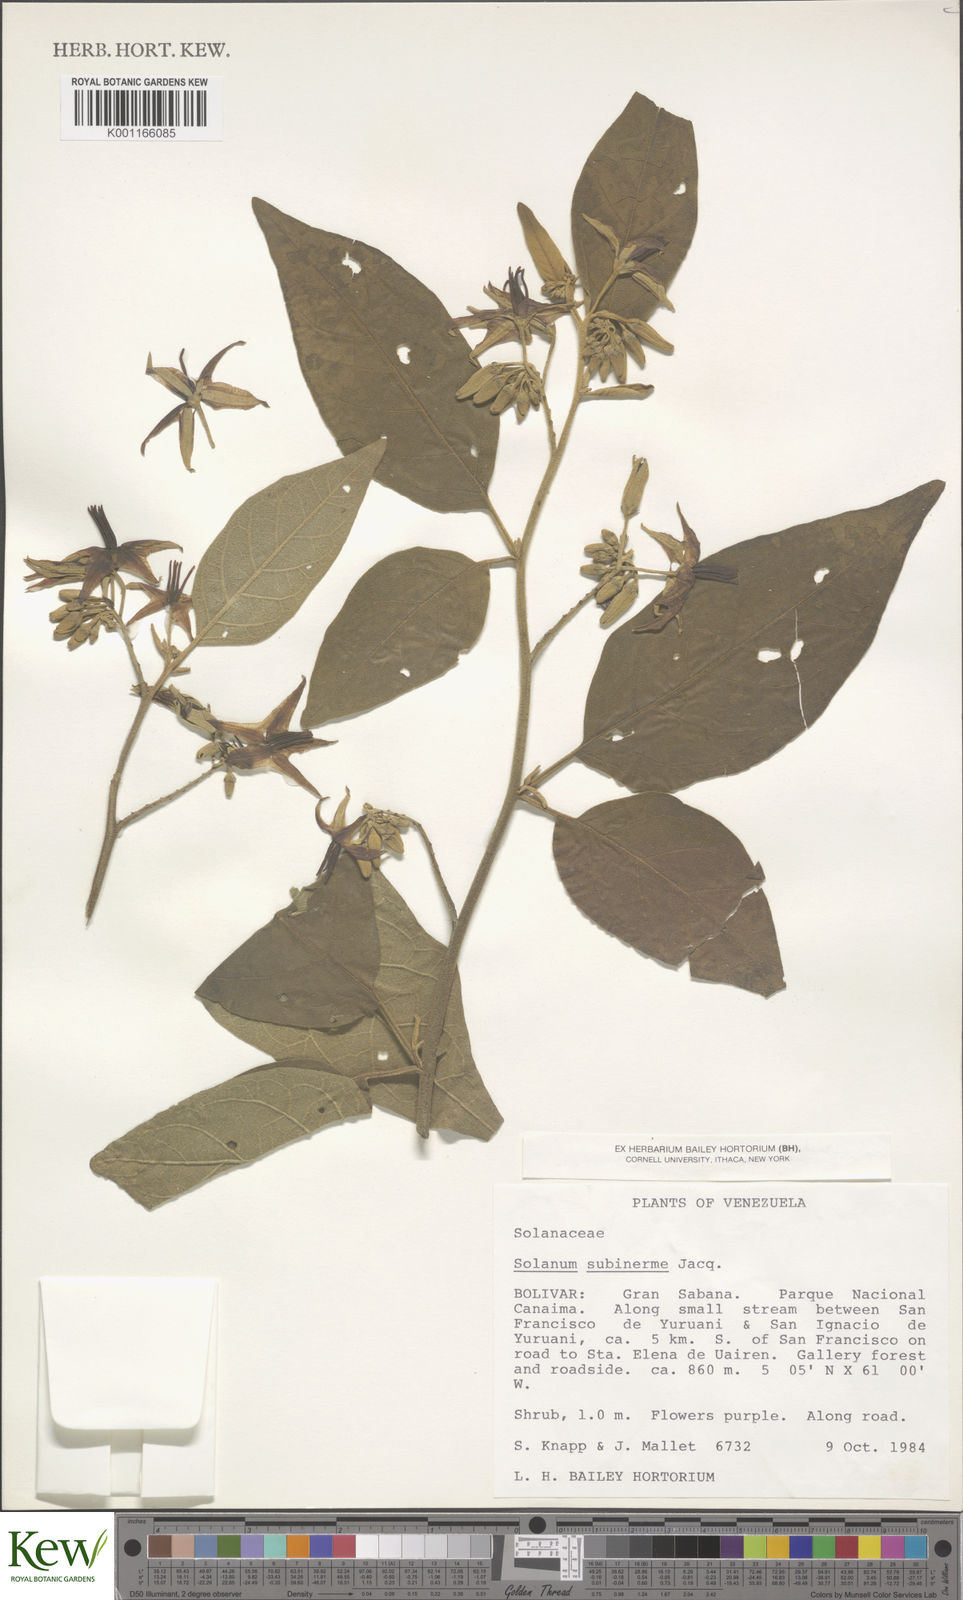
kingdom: Plantae
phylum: Tracheophyta
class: Magnoliopsida
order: Solanales
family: Solanaceae
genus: Solanum
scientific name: Solanum subinerme
